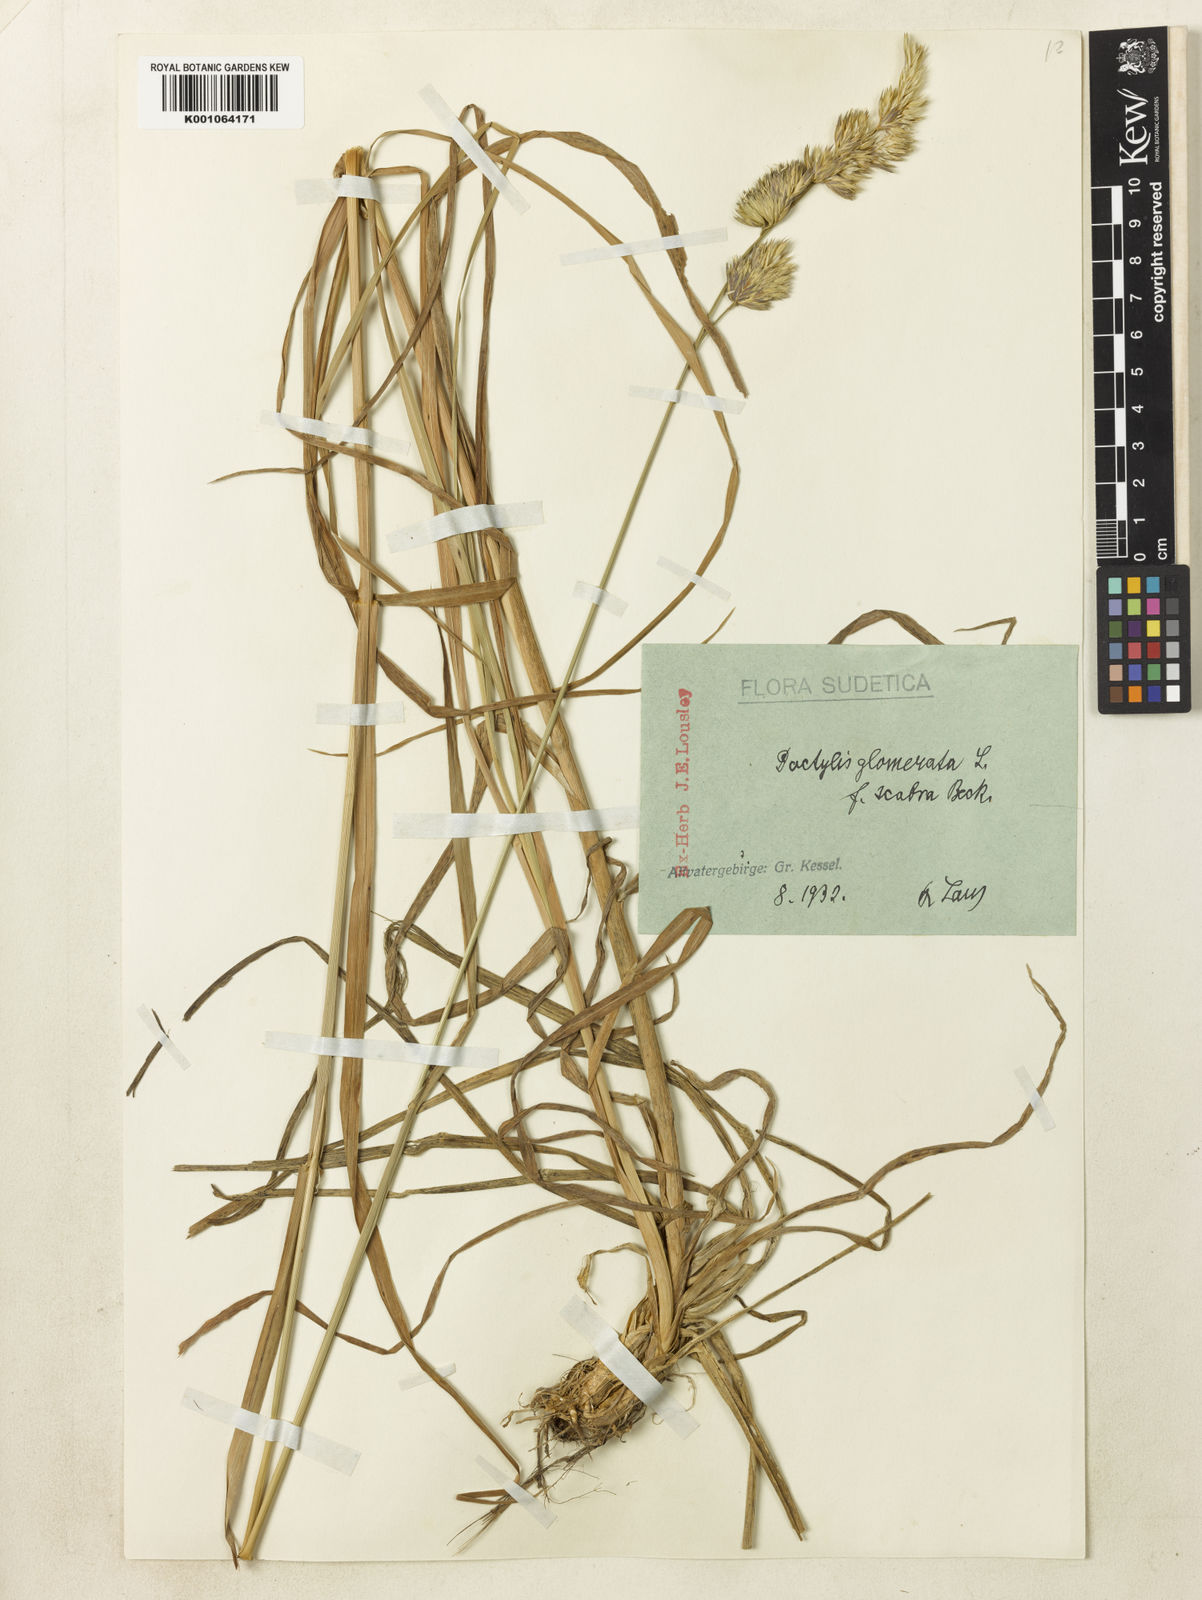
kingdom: Plantae
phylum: Tracheophyta
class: Liliopsida
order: Poales
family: Poaceae
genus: Dactylis
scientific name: Dactylis glomerata
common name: Orchardgrass
